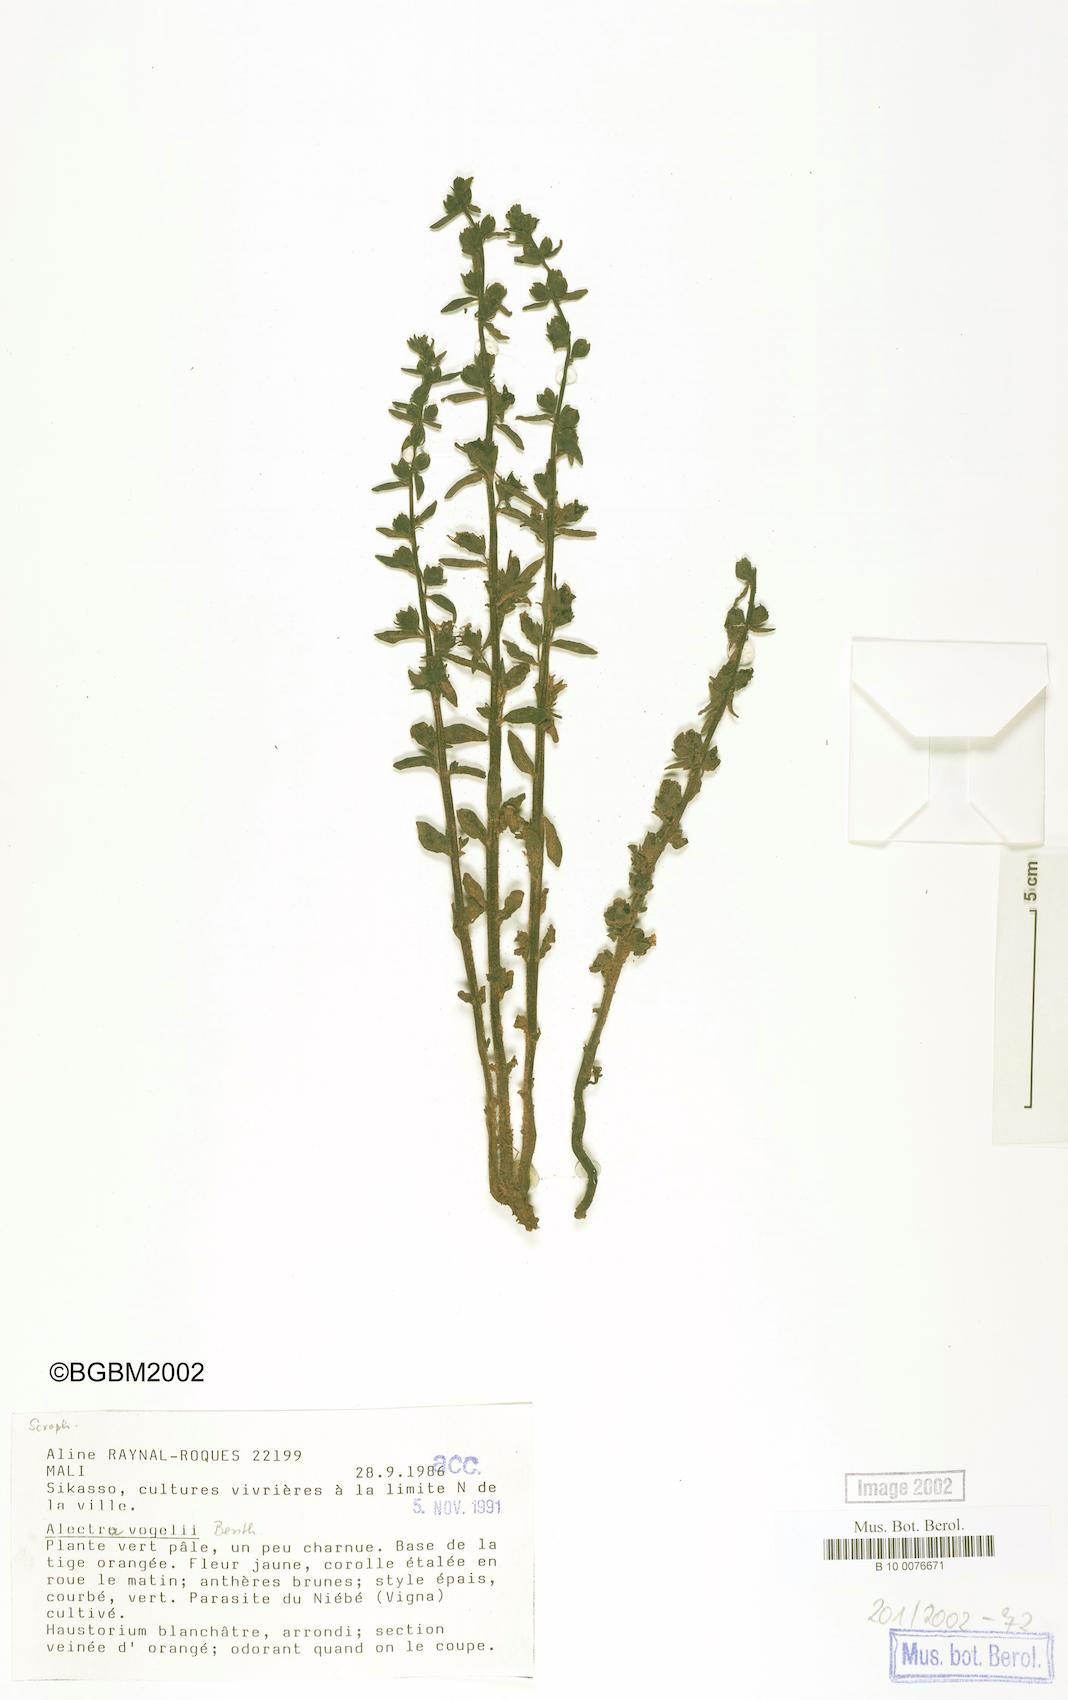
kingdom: Plantae
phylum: Tracheophyta
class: Magnoliopsida
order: Lamiales
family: Orobanchaceae
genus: Alectra
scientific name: Alectra vogelii
